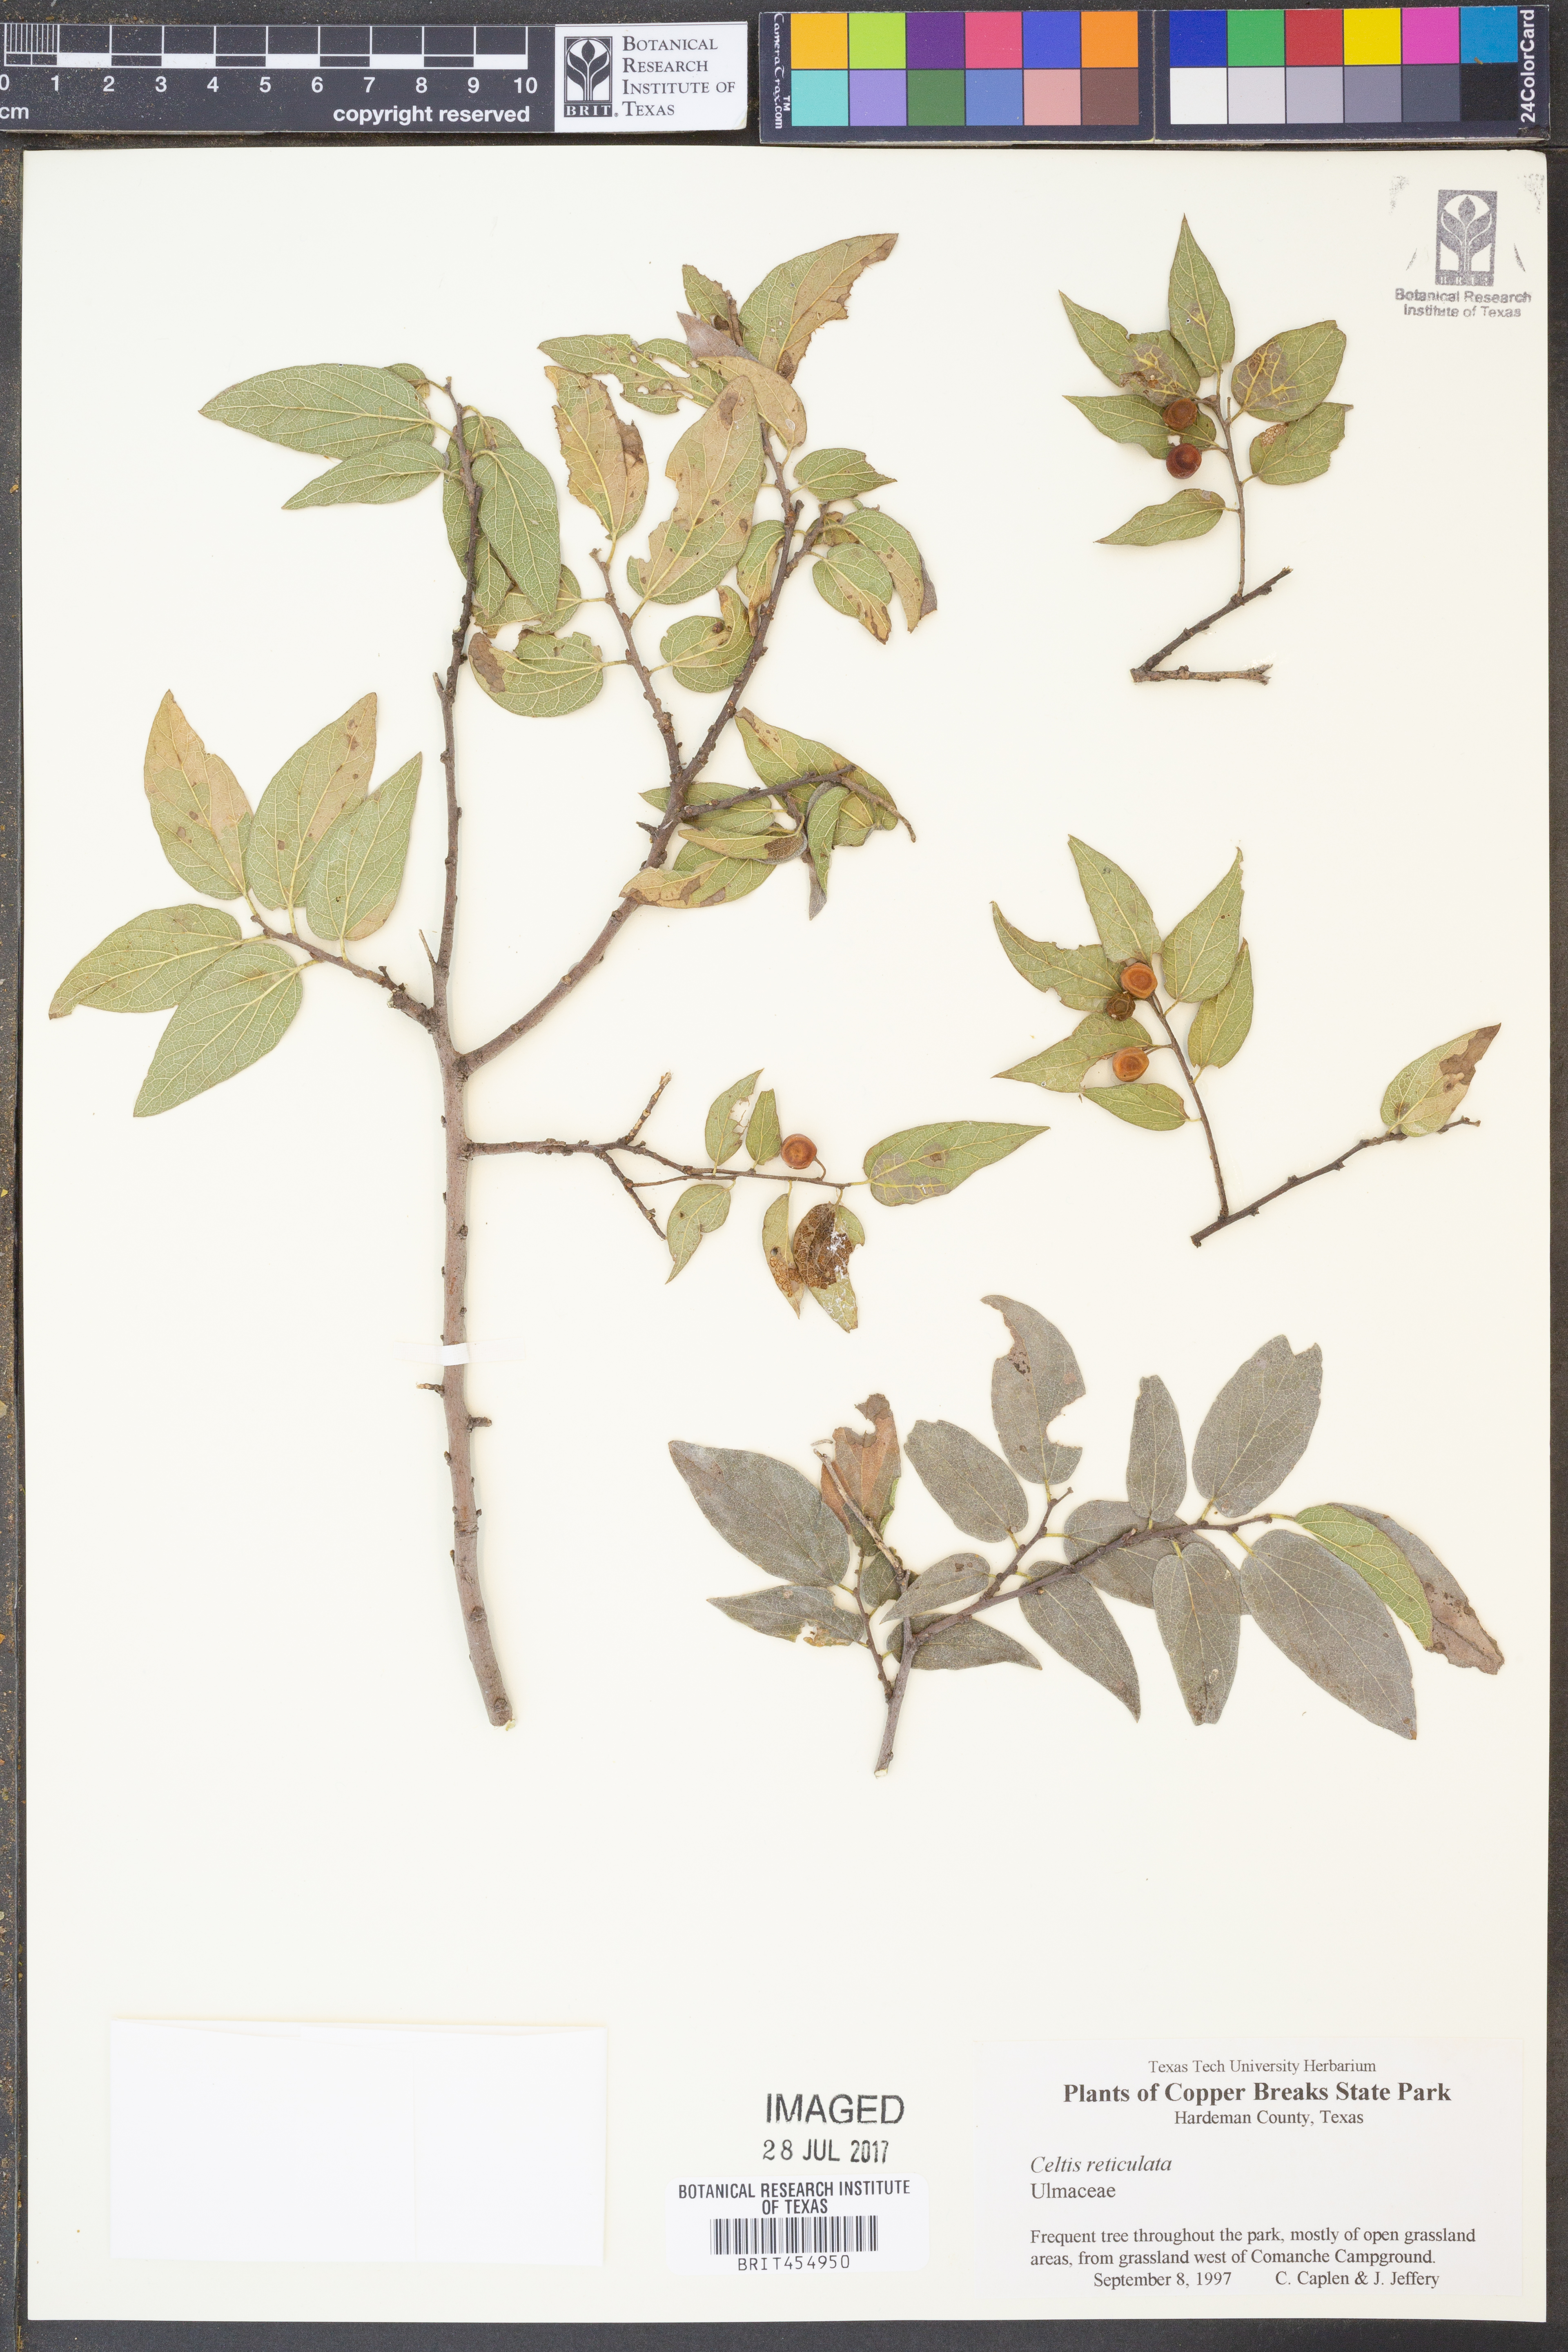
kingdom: Plantae
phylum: Tracheophyta
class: Magnoliopsida
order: Rosales
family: Cannabaceae
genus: Celtis
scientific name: Celtis reticulata
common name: Netleaf hackberry
